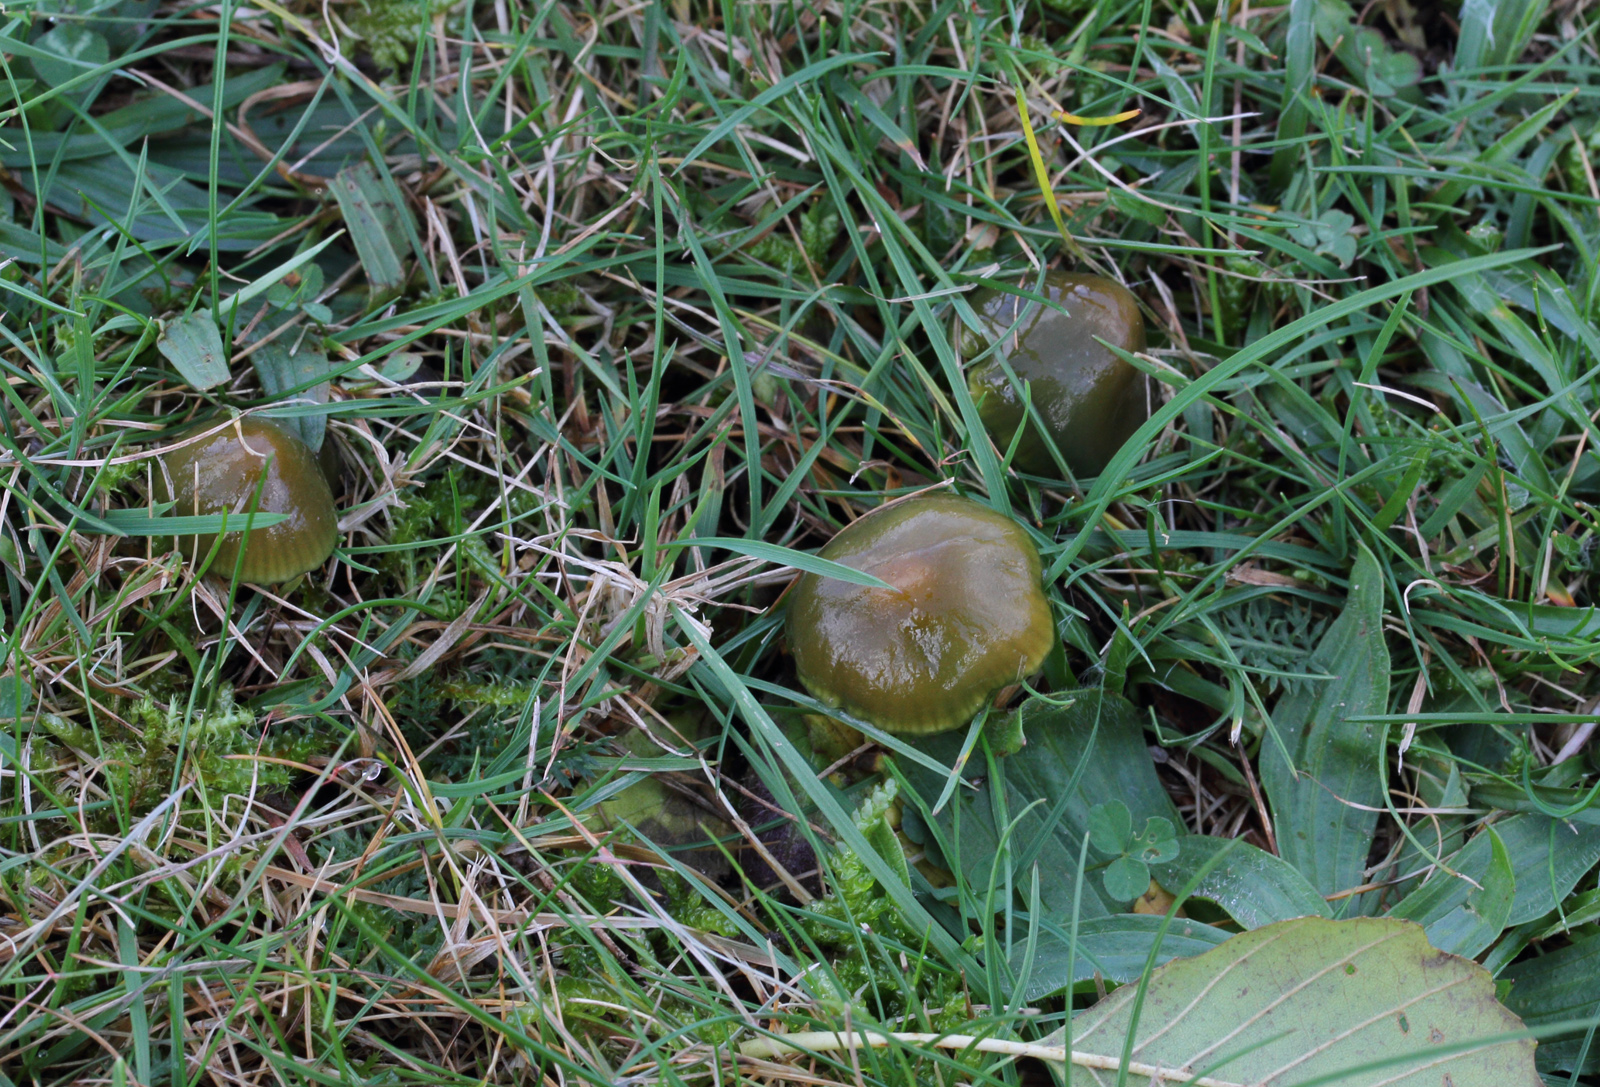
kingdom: Fungi
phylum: Basidiomycota
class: Agaricomycetes
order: Agaricales
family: Hygrophoraceae
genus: Gliophorus
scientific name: Gliophorus psittacinus
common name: papegøje-vokshat
